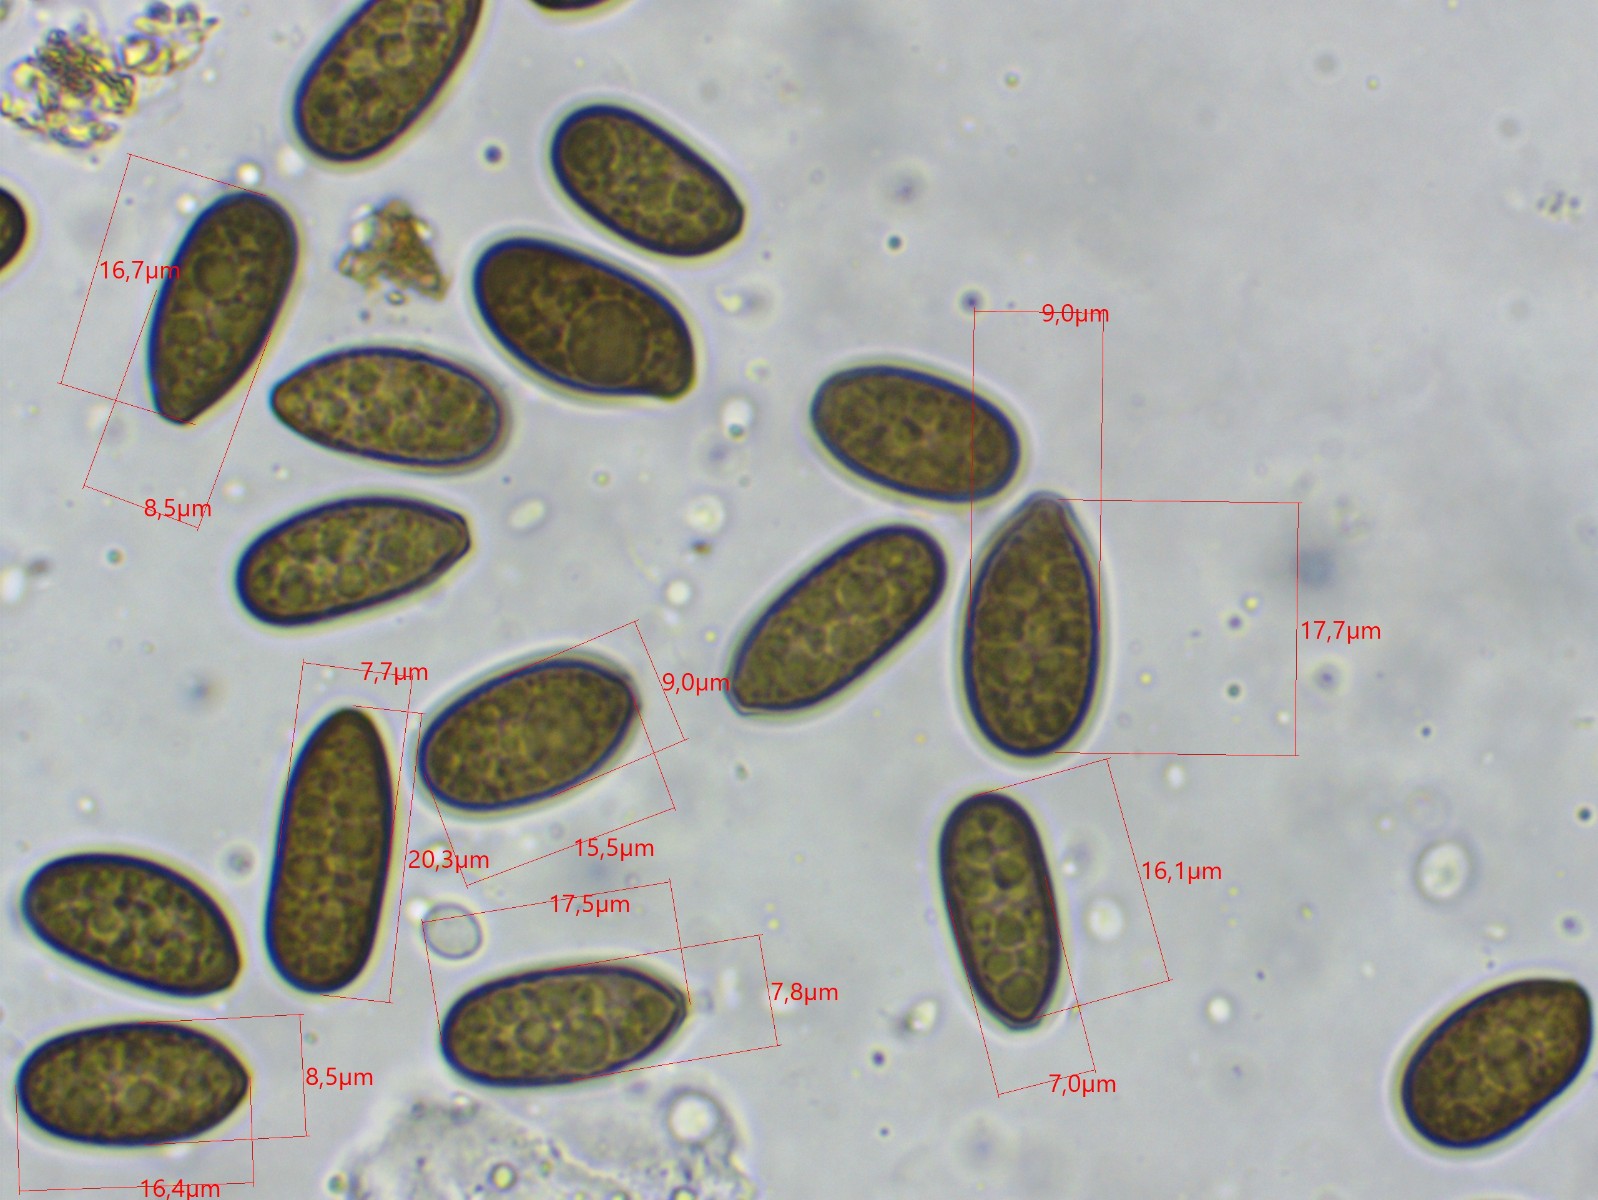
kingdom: Fungi
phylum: Ascomycota
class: Sordariomycetes
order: Diaporthales
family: Juglanconidaceae
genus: Juglanconis
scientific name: Juglanconis pterocaryae
